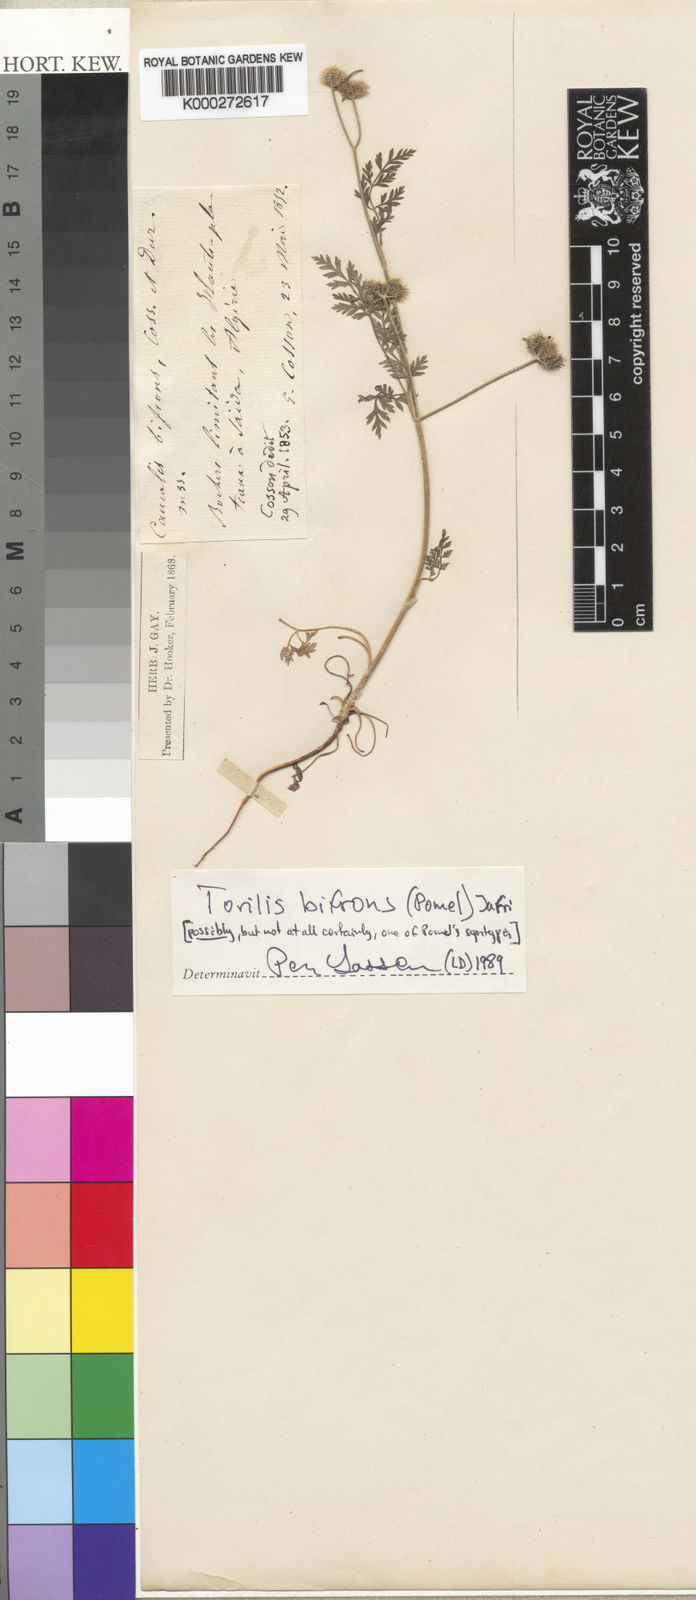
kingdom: Plantae
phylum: Tracheophyta
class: Magnoliopsida
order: Apiales
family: Apiaceae
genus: Torilis
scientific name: Torilis elongata
